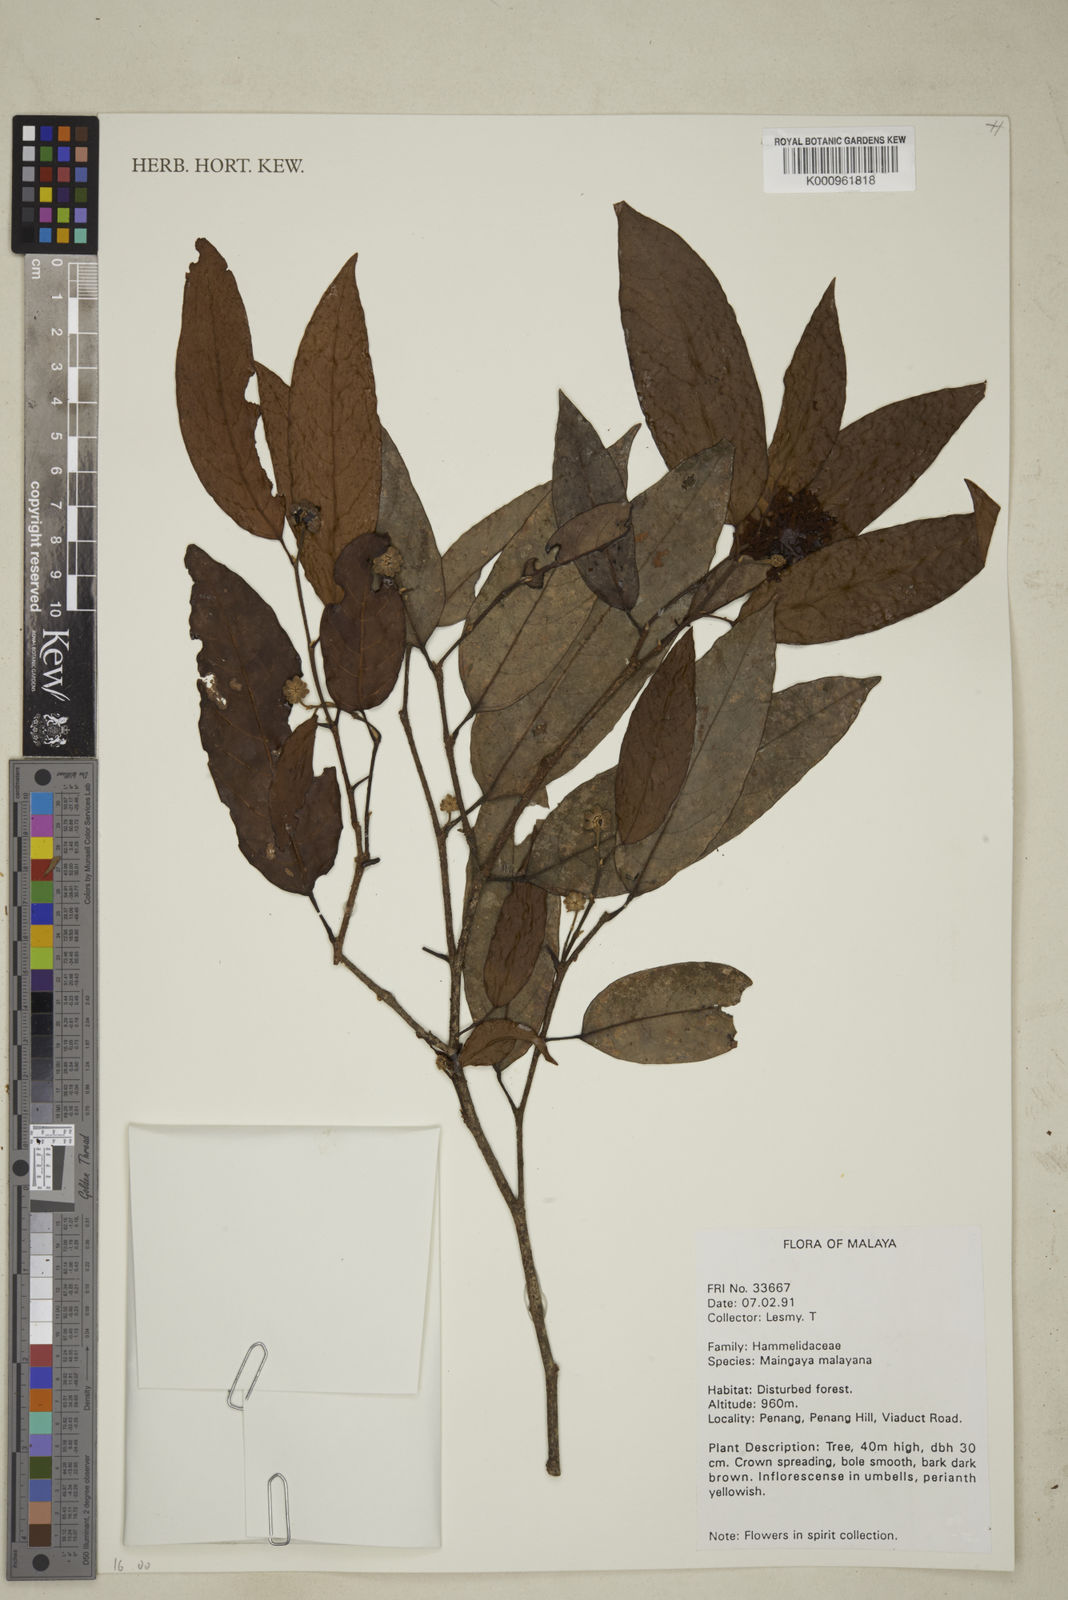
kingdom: Plantae
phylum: Tracheophyta
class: Magnoliopsida
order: Saxifragales
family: Hamamelidaceae
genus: Maingaya
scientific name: Maingaya malayana
